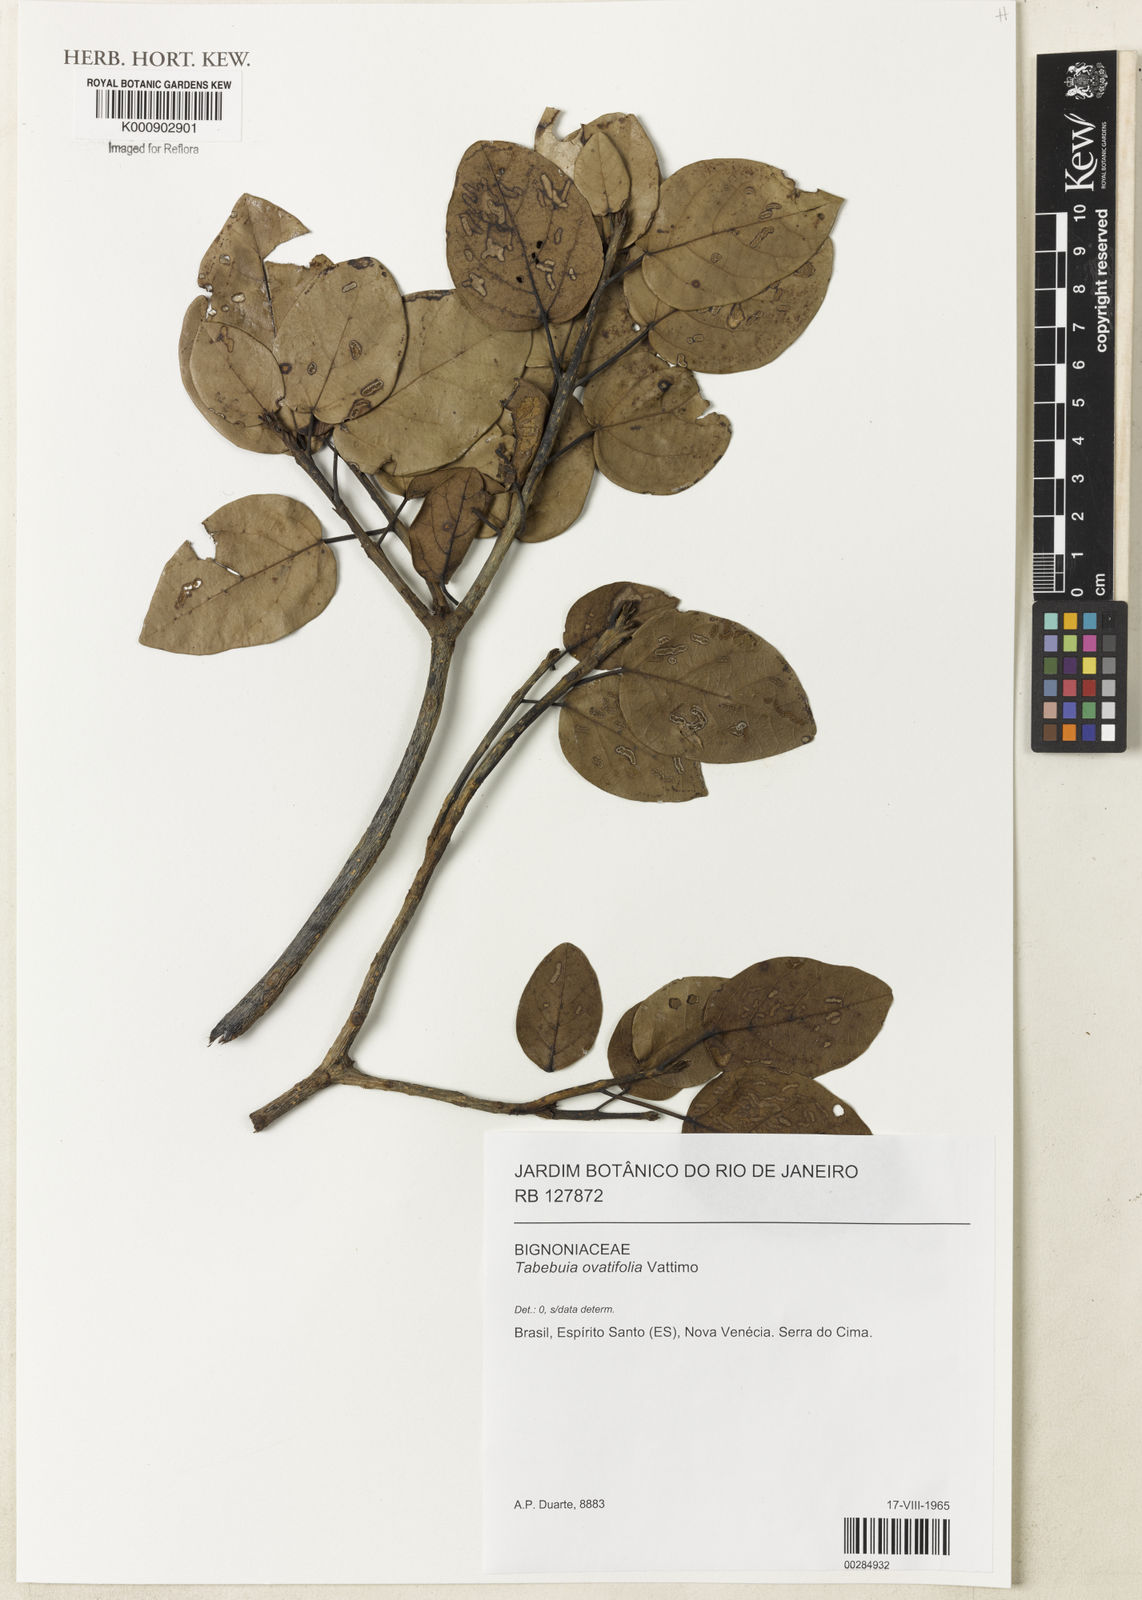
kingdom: Plantae
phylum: Tracheophyta
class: Magnoliopsida
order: Lamiales
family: Bignoniaceae
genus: Tabebuia
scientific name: Tabebuia ovatifolia
